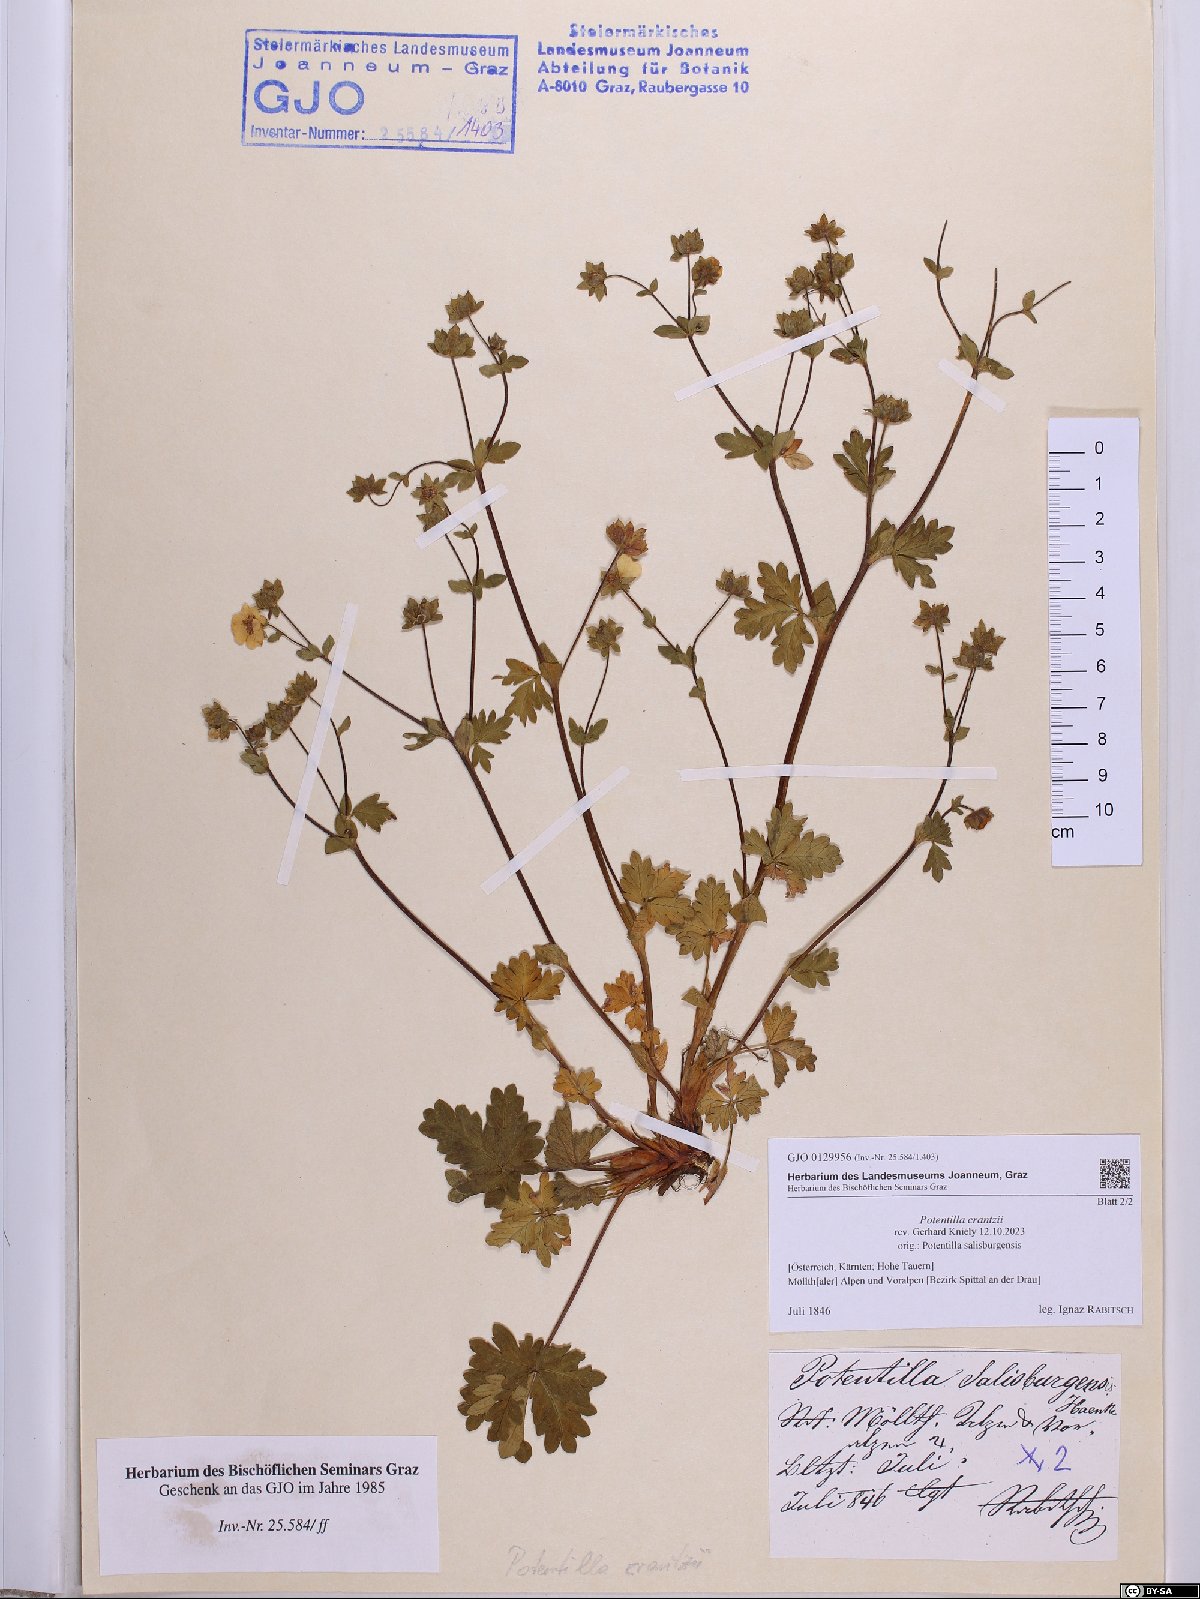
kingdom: Plantae
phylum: Tracheophyta
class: Magnoliopsida
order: Rosales
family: Rosaceae
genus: Potentilla
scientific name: Potentilla crantzii
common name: Alpine cinquefoil
